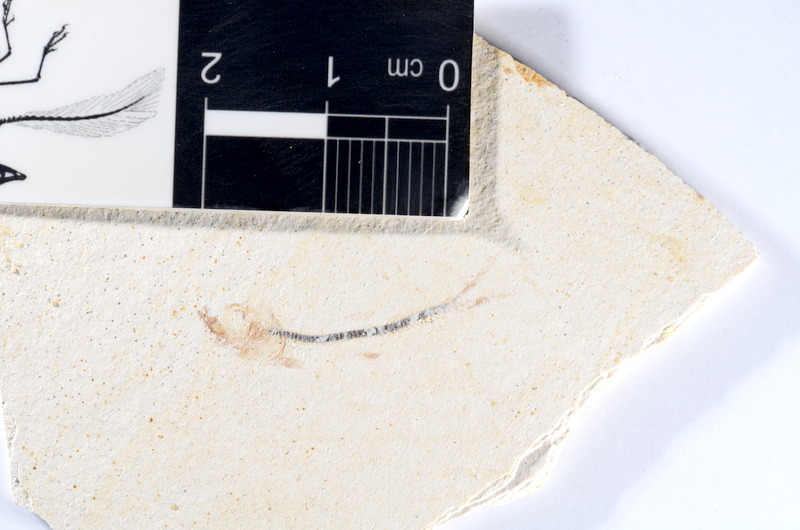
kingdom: Animalia
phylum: Chordata
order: Salmoniformes
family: Orthogonikleithridae
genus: Orthogonikleithrus
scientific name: Orthogonikleithrus hoelli
